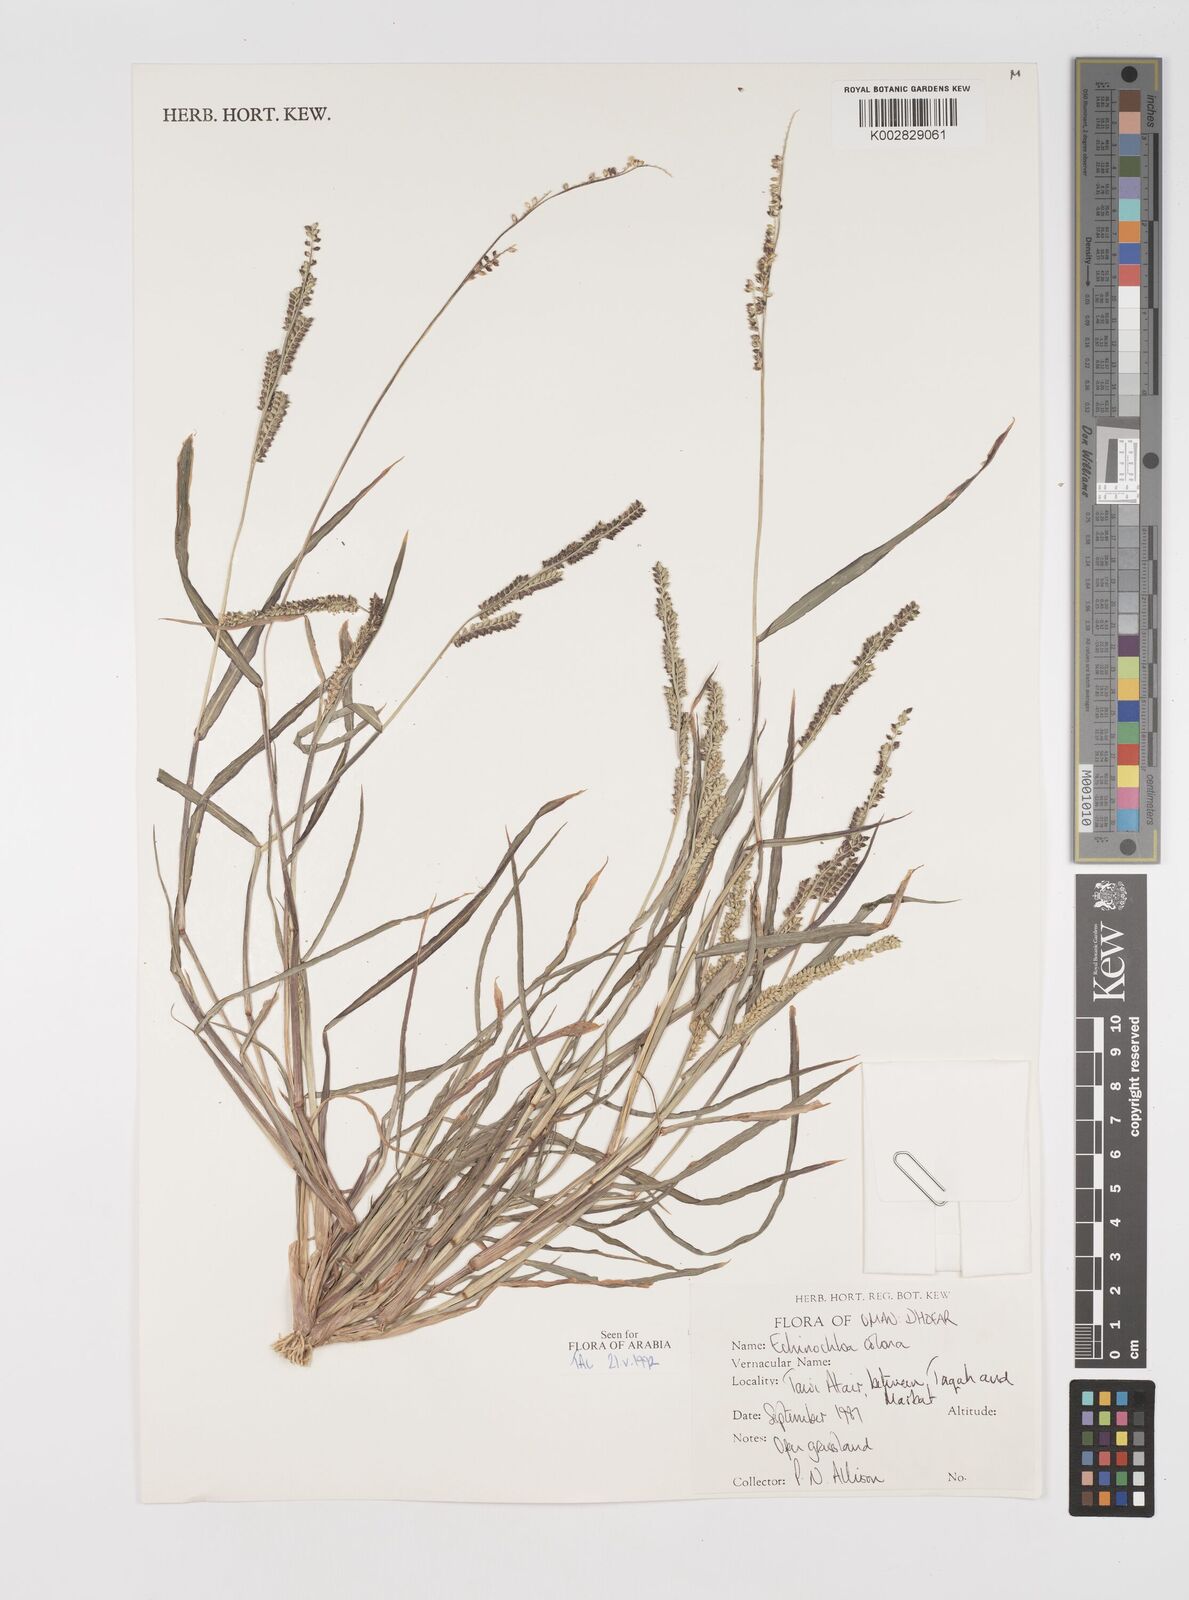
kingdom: Plantae
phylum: Tracheophyta
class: Liliopsida
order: Poales
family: Poaceae
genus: Echinochloa
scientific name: Echinochloa colonum
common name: Jungle rice
